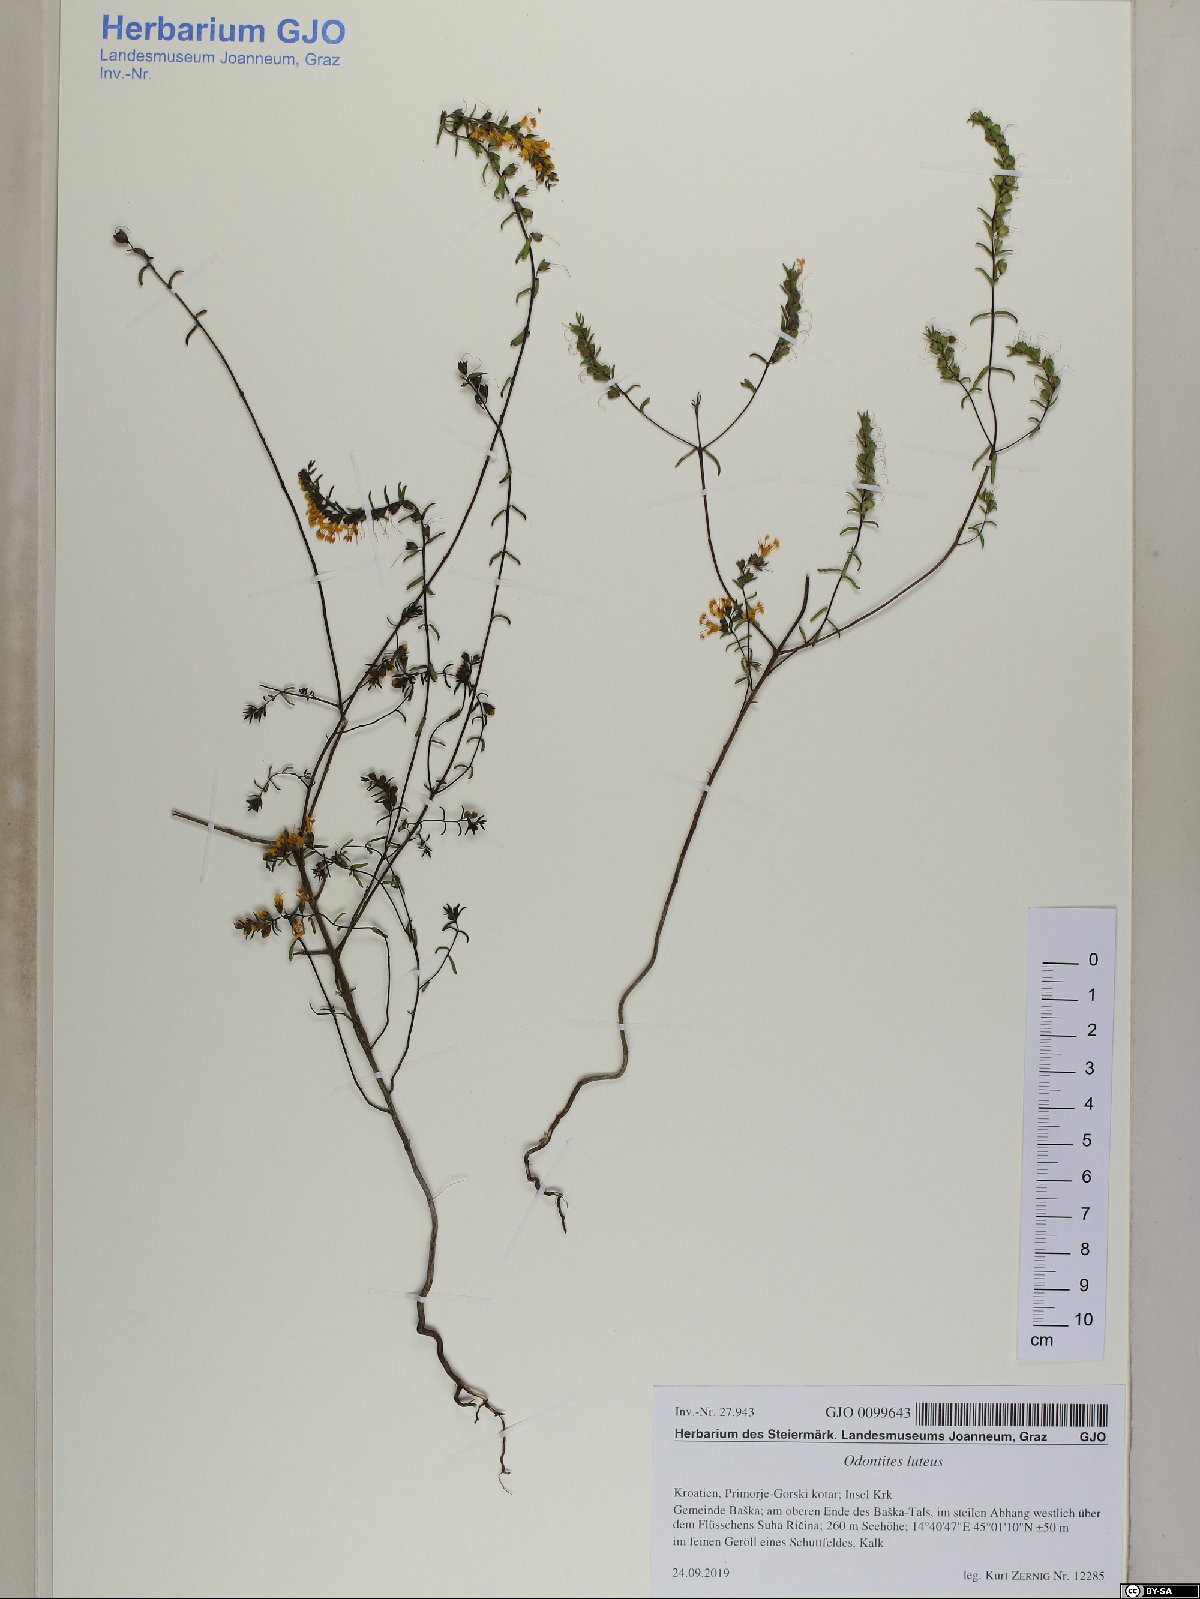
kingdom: Plantae
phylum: Tracheophyta
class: Magnoliopsida
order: Lamiales
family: Orobanchaceae
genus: Odontites
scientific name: Odontites luteus
